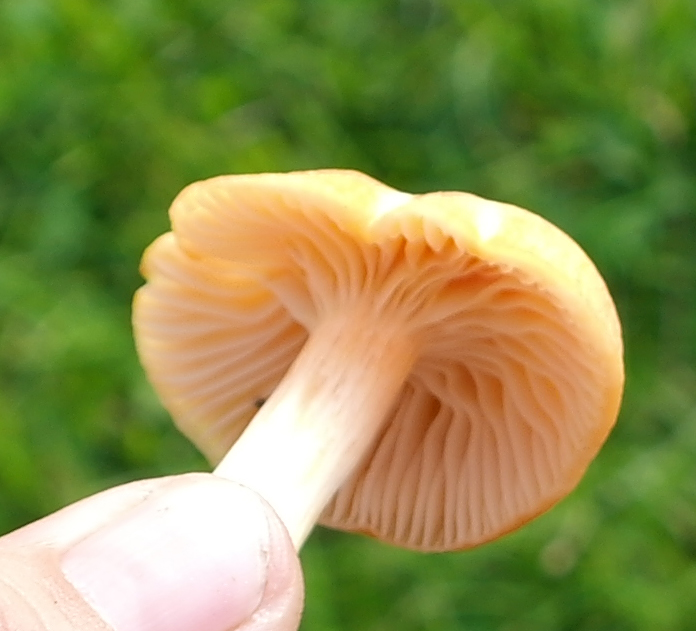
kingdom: Fungi
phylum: Basidiomycota
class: Agaricomycetes
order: Agaricales
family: Hygrophoraceae
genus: Cuphophyllus
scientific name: Cuphophyllus pratensis
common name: eng-vokshat
